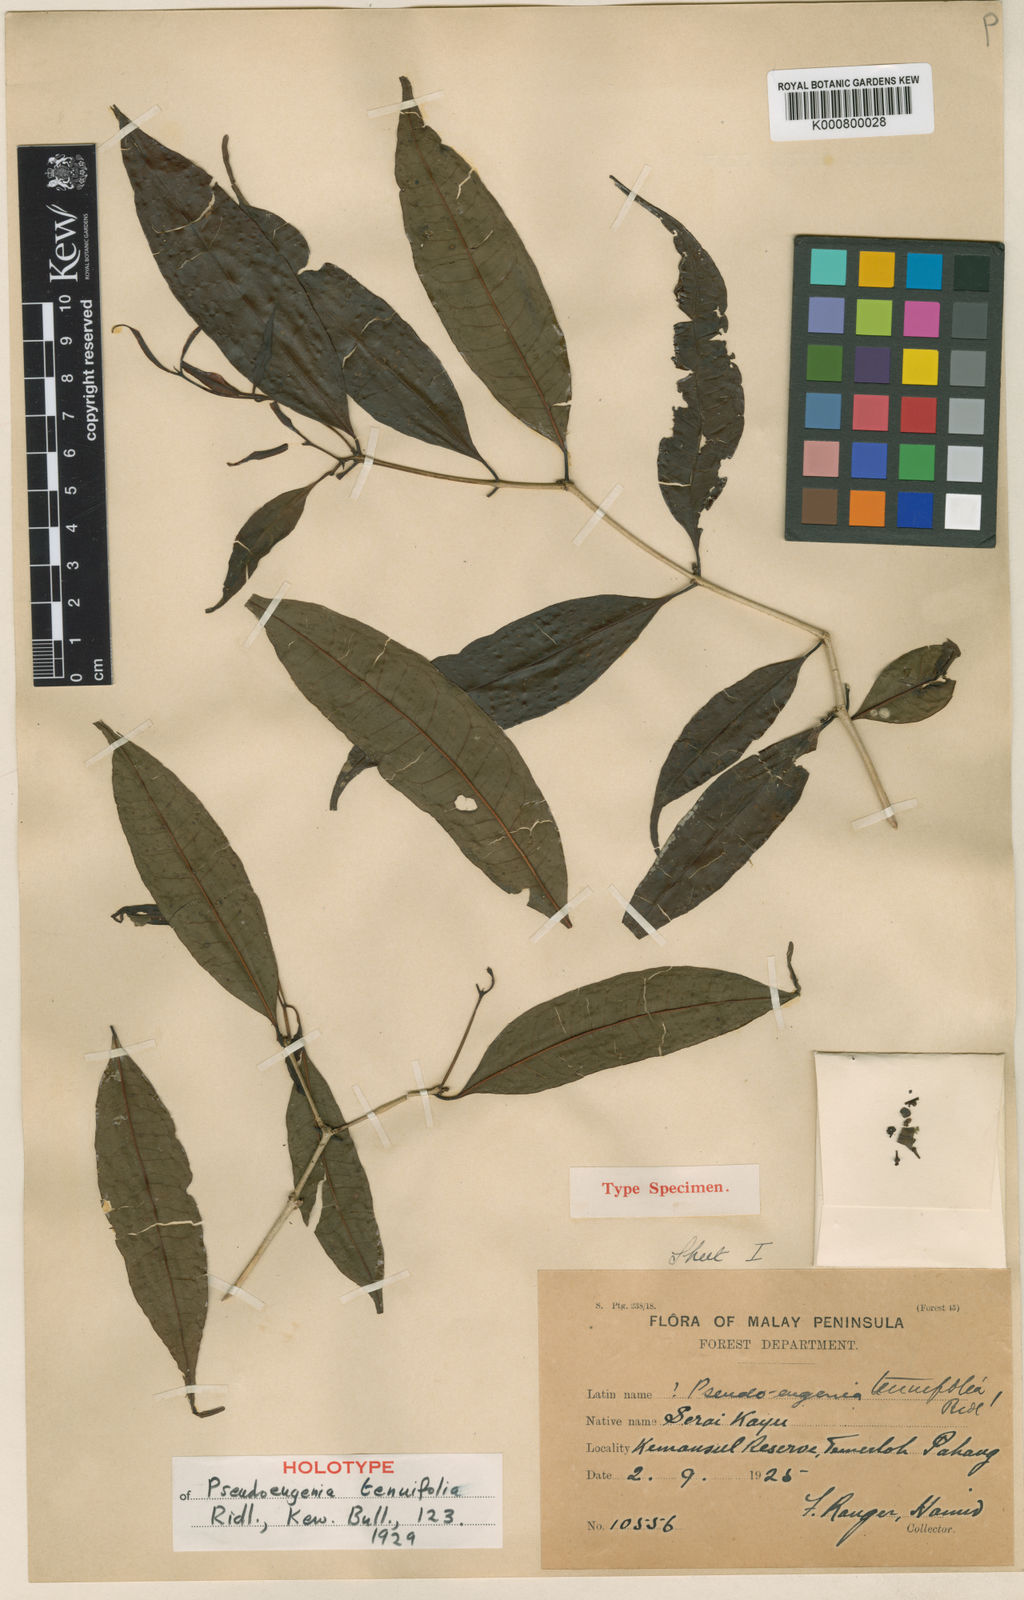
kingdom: Plantae
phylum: Tracheophyta
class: Magnoliopsida
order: Myrtales
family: Myrtaceae
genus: Syzygium
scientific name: Syzygium tenuifolium
